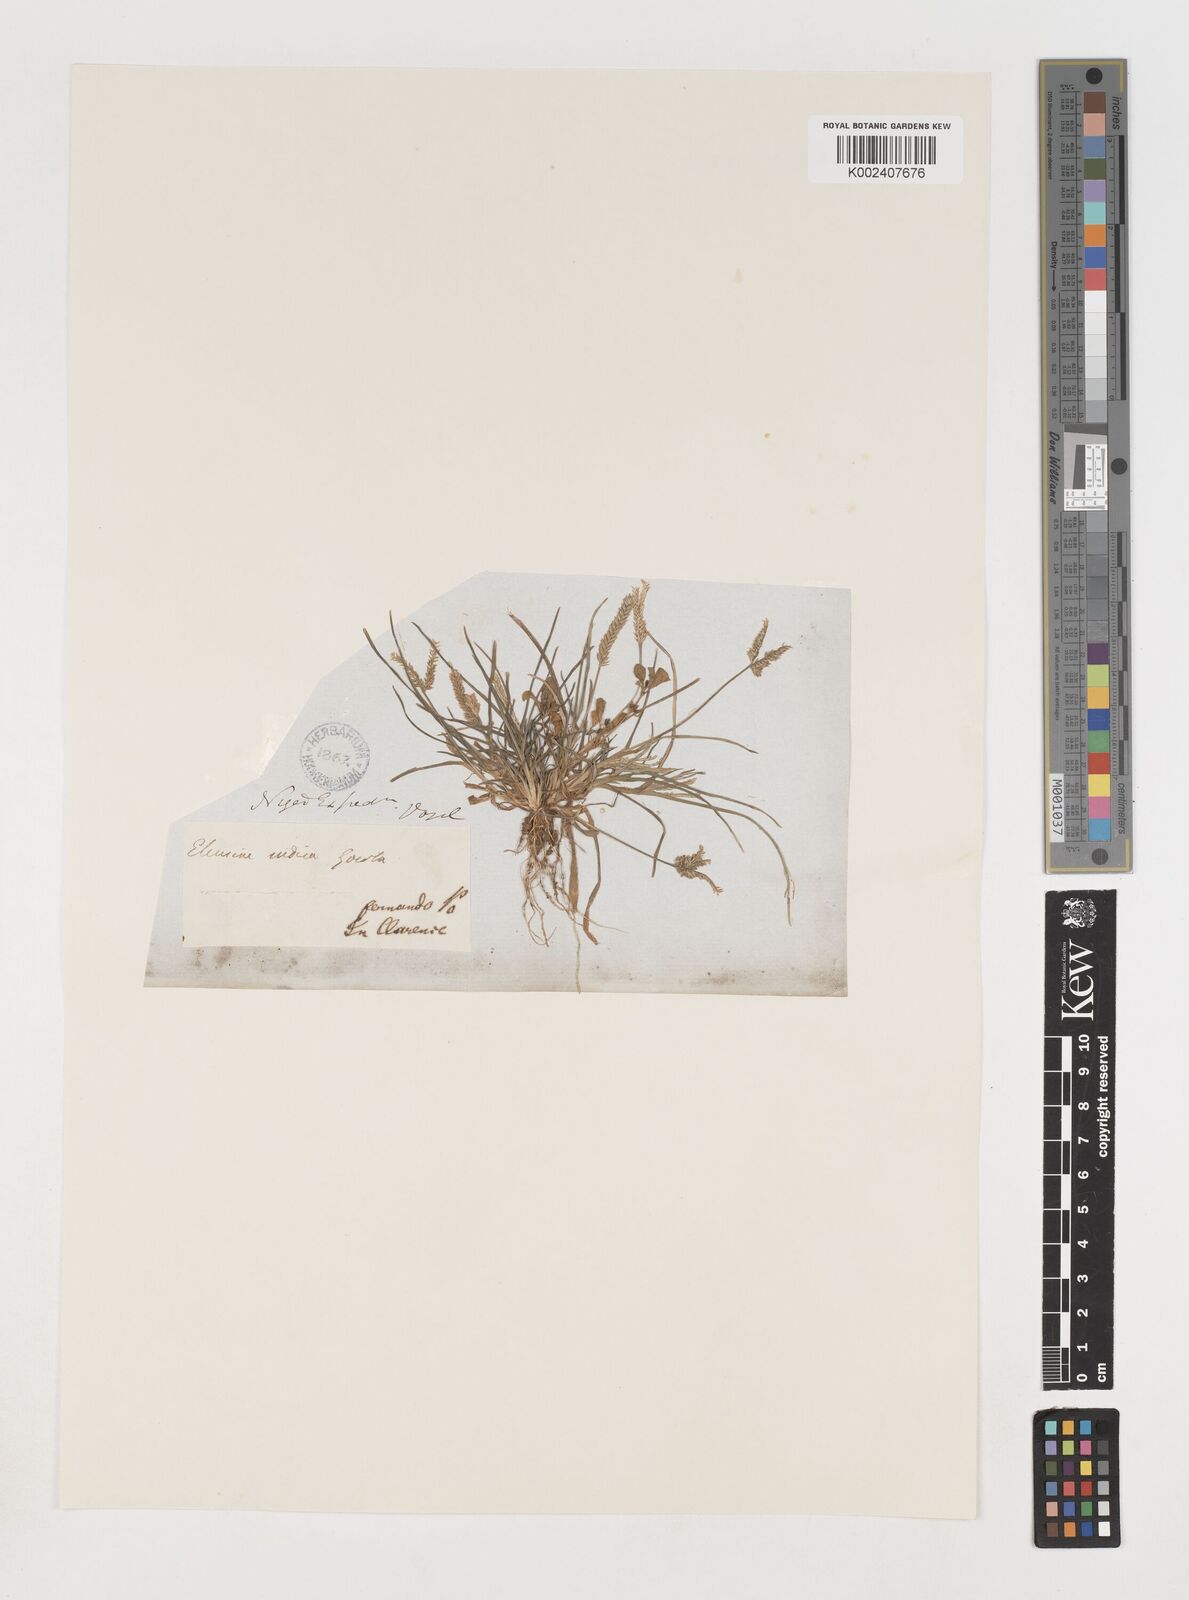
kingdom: Plantae
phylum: Tracheophyta
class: Liliopsida
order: Poales
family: Poaceae
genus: Eleusine
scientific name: Eleusine indica
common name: Yard-grass
